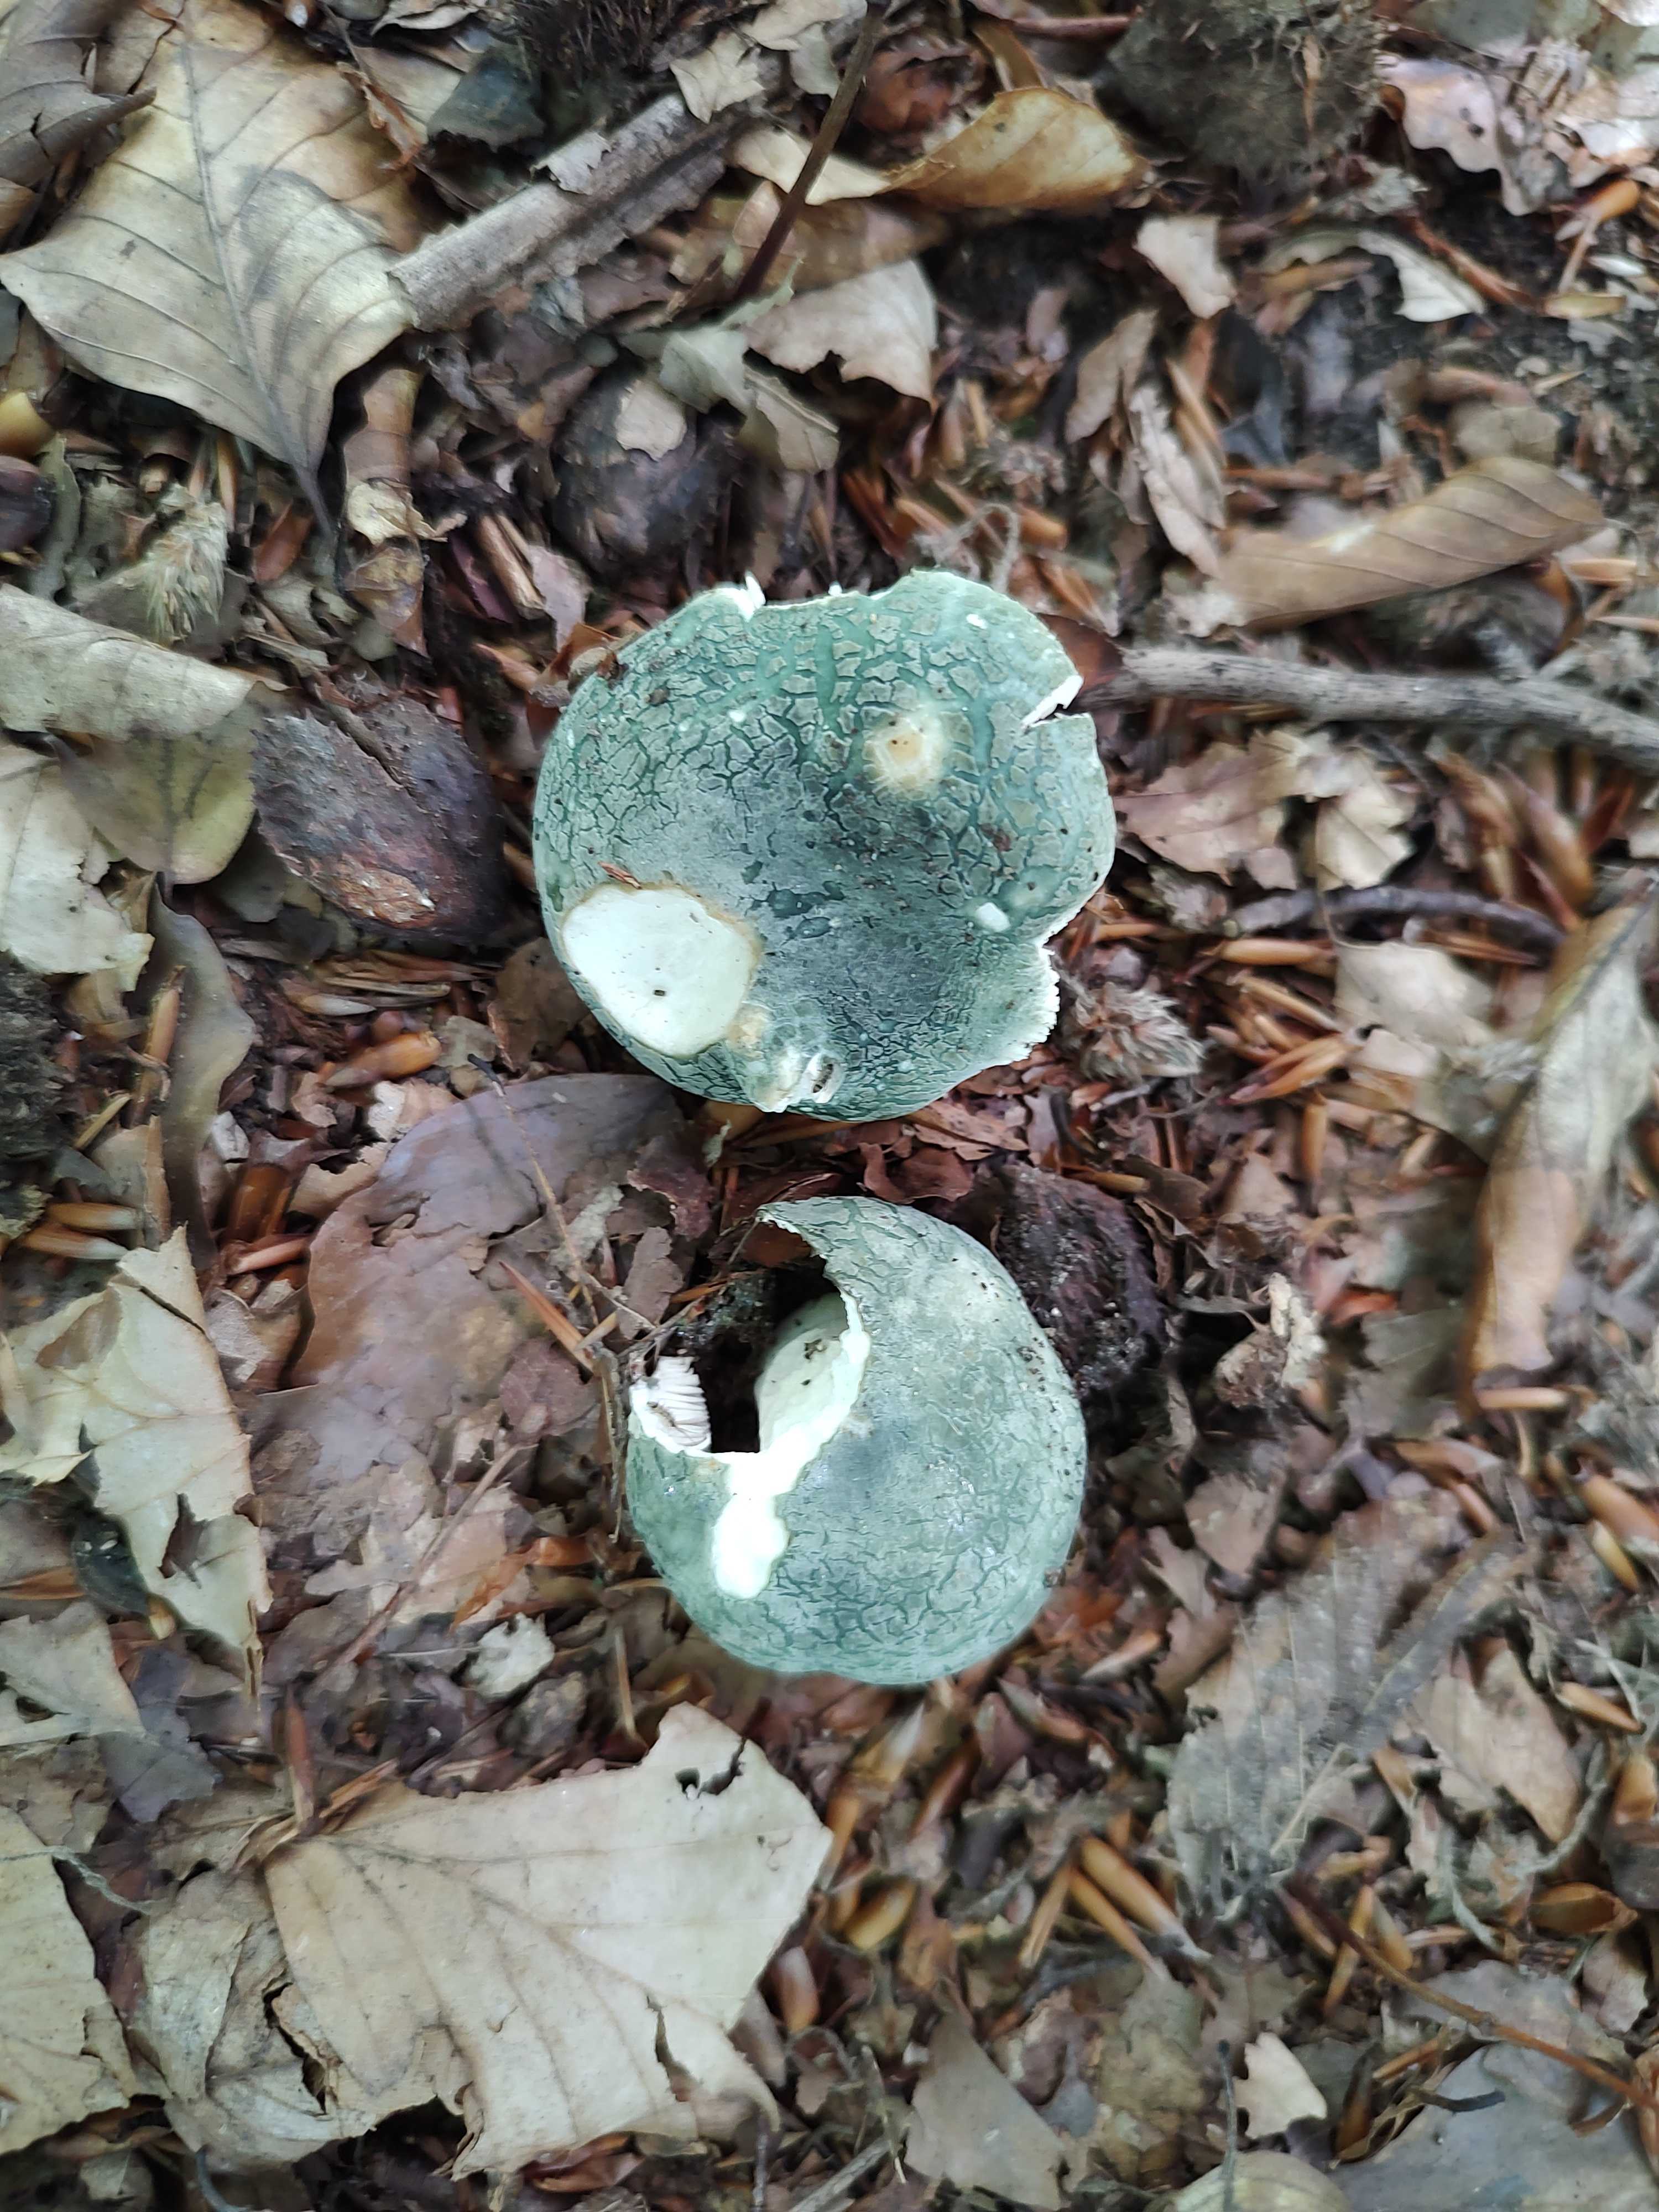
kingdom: Fungi
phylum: Basidiomycota
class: Agaricomycetes
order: Russulales
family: Russulaceae
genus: Russula
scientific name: Russula virescens
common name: spanskgrøn skørhat
